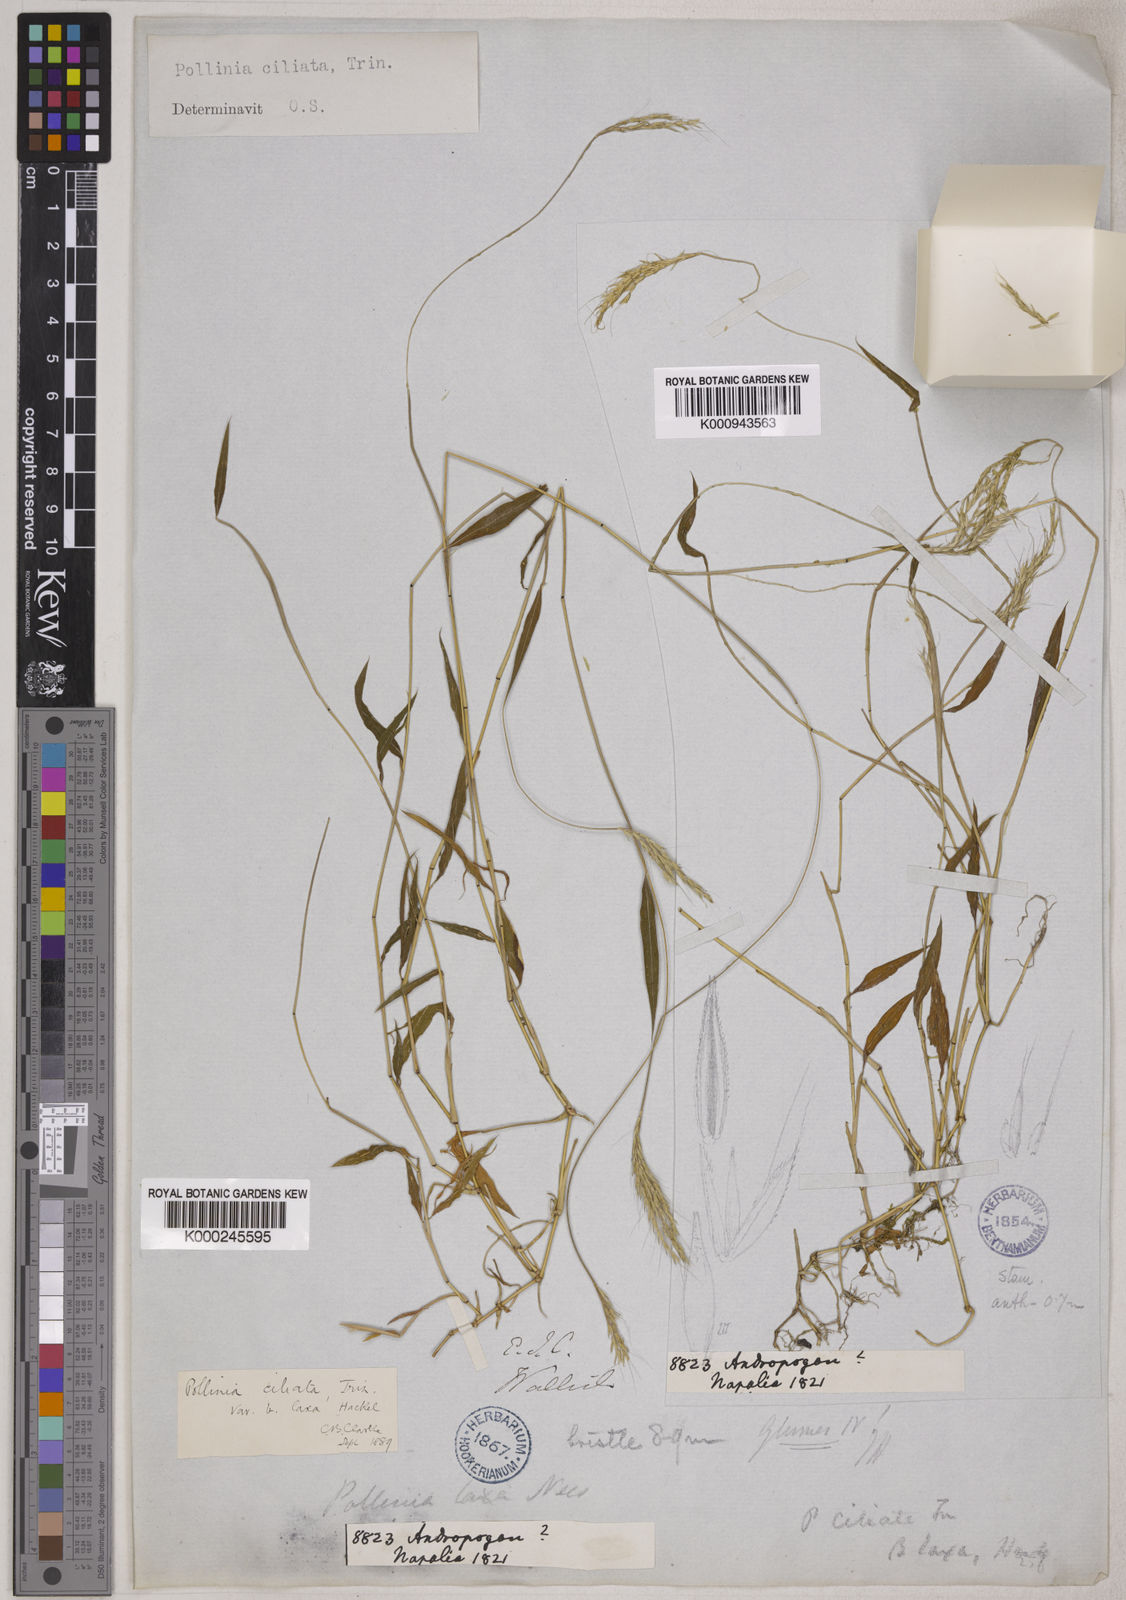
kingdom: Plantae
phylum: Tracheophyta
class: Liliopsida
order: Poales
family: Poaceae
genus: Microstegium
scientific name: Microstegium fasciculatum
